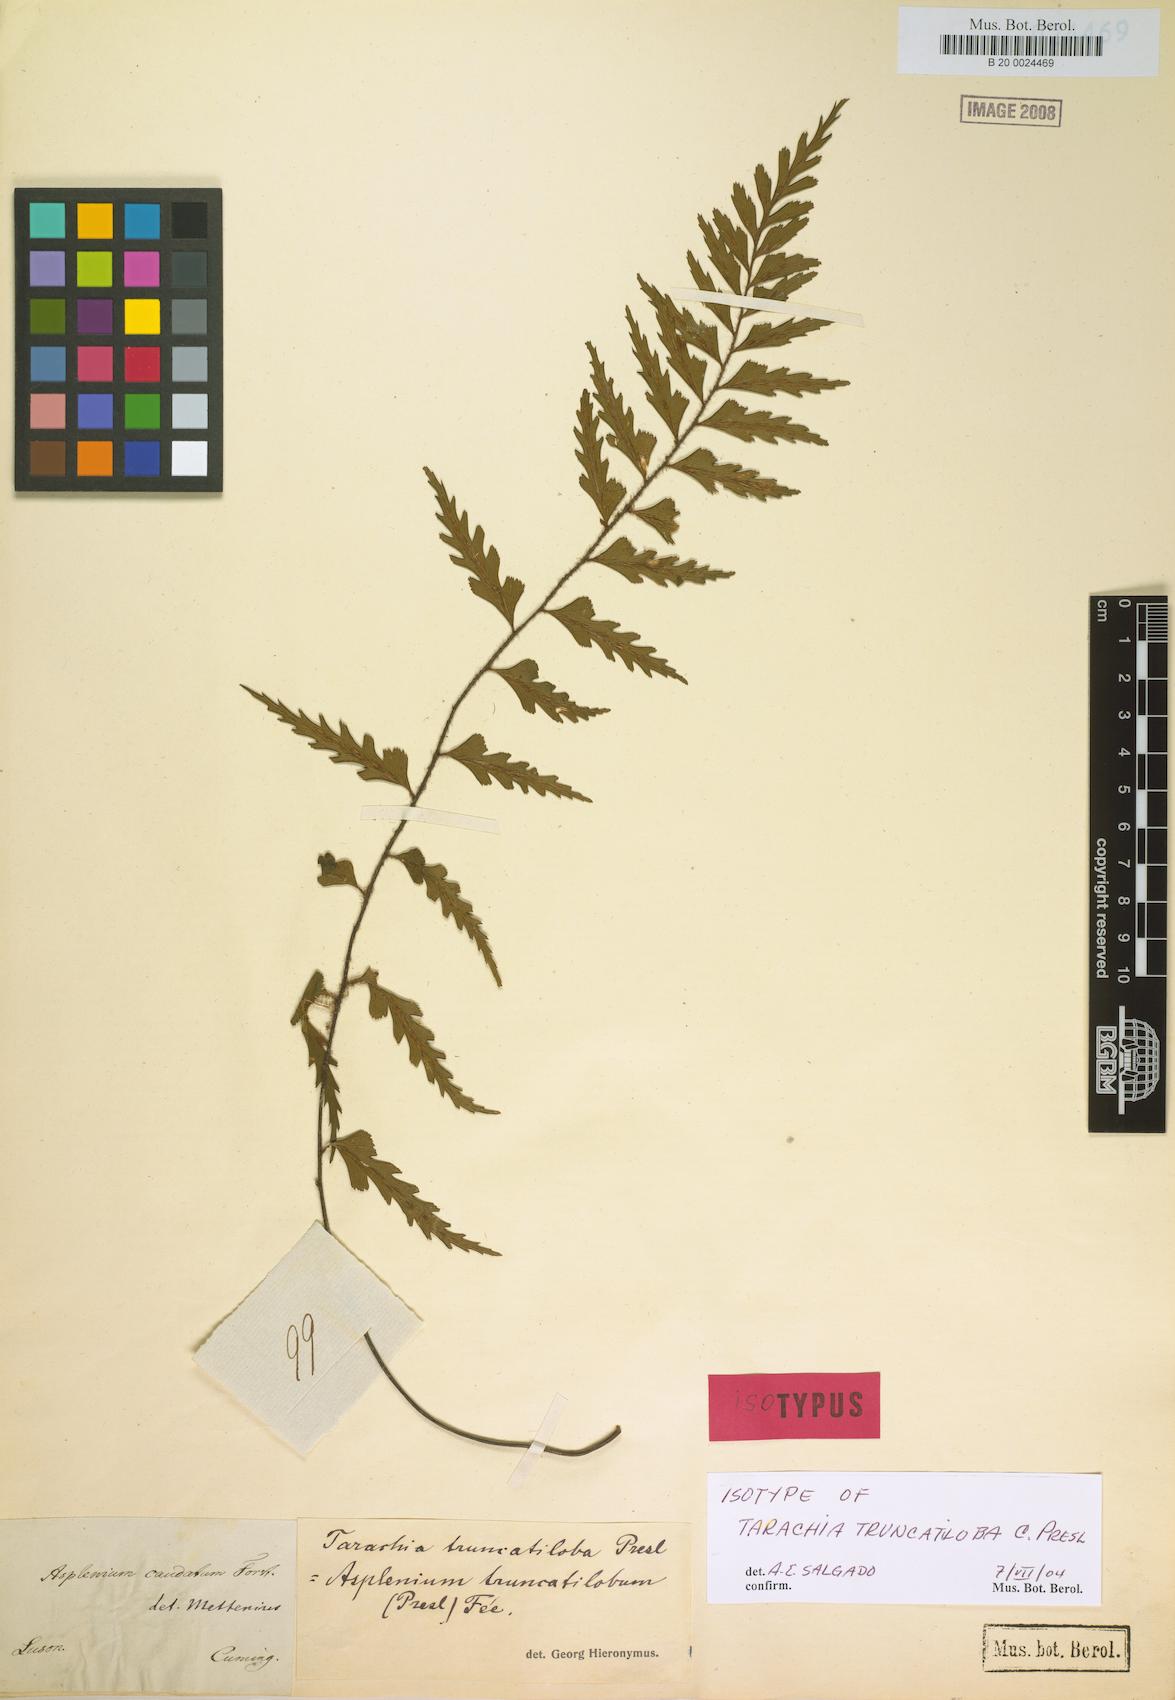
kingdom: Plantae
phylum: Tracheophyta
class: Polypodiopsida
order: Polypodiales
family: Aspleniaceae
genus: Asplenium
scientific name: Asplenium truncatilobum
